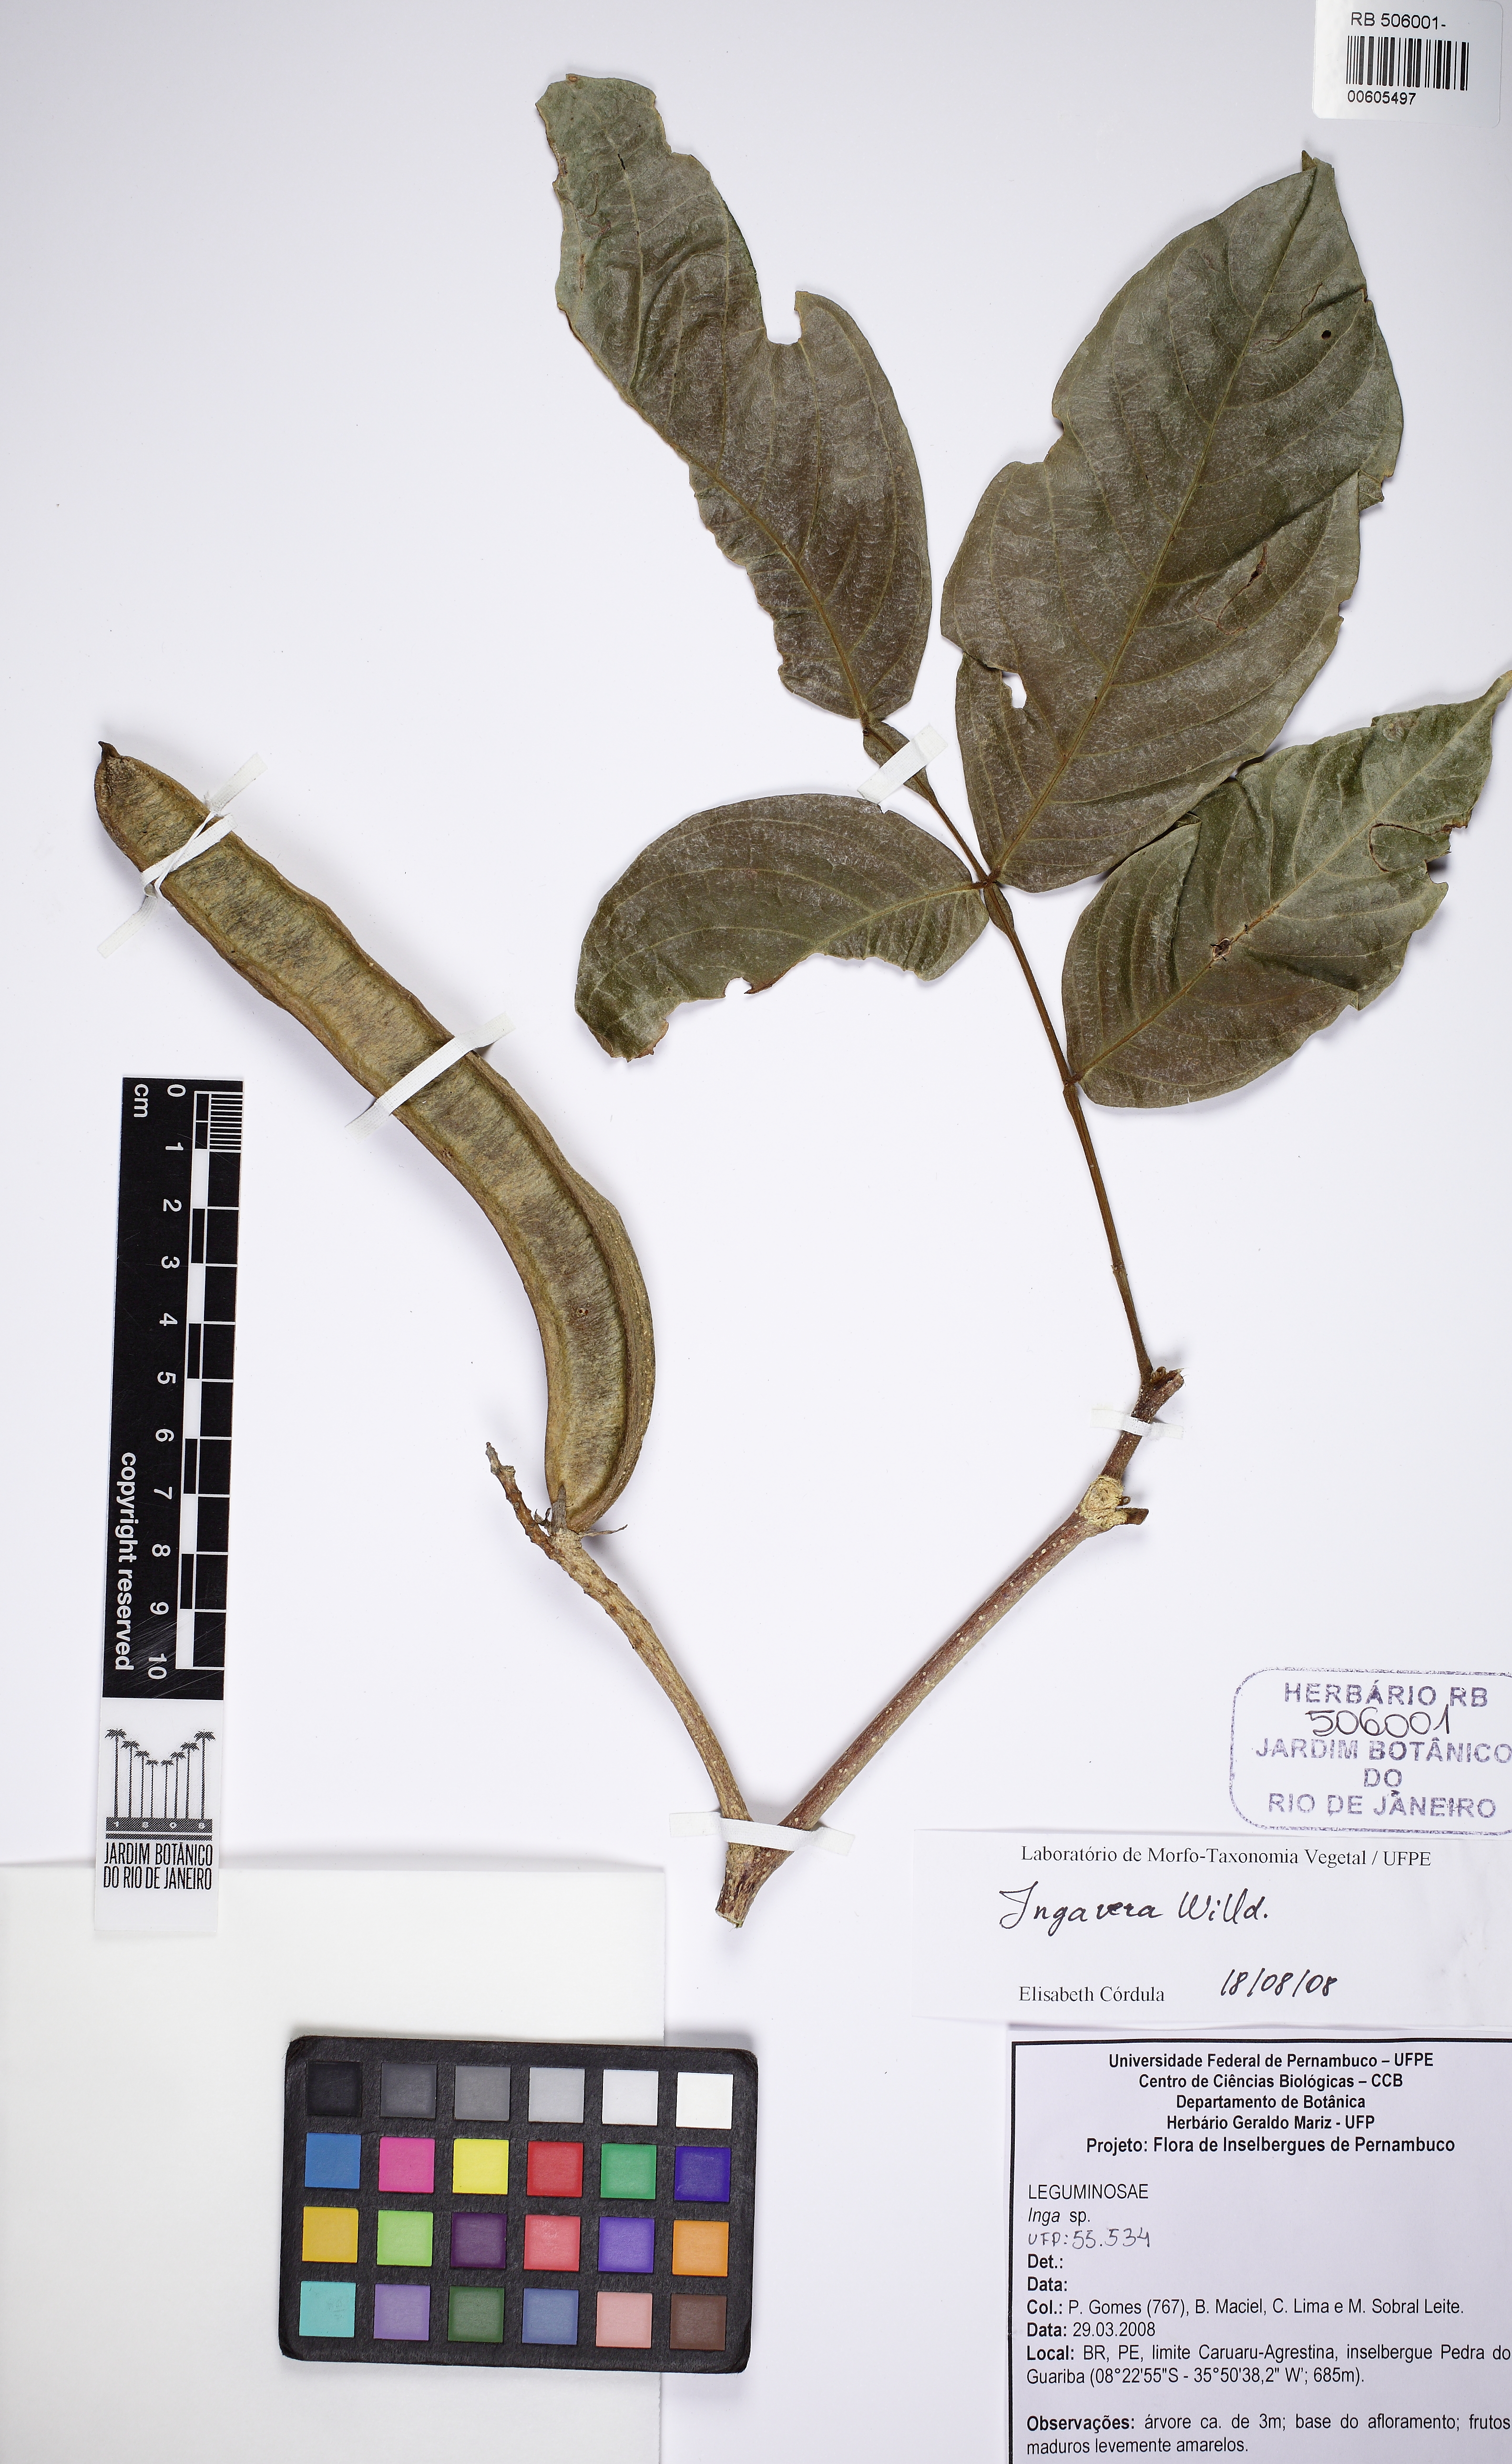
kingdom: Plantae
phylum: Tracheophyta
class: Magnoliopsida
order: Fabales
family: Fabaceae
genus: Inga
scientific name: Inga vera
